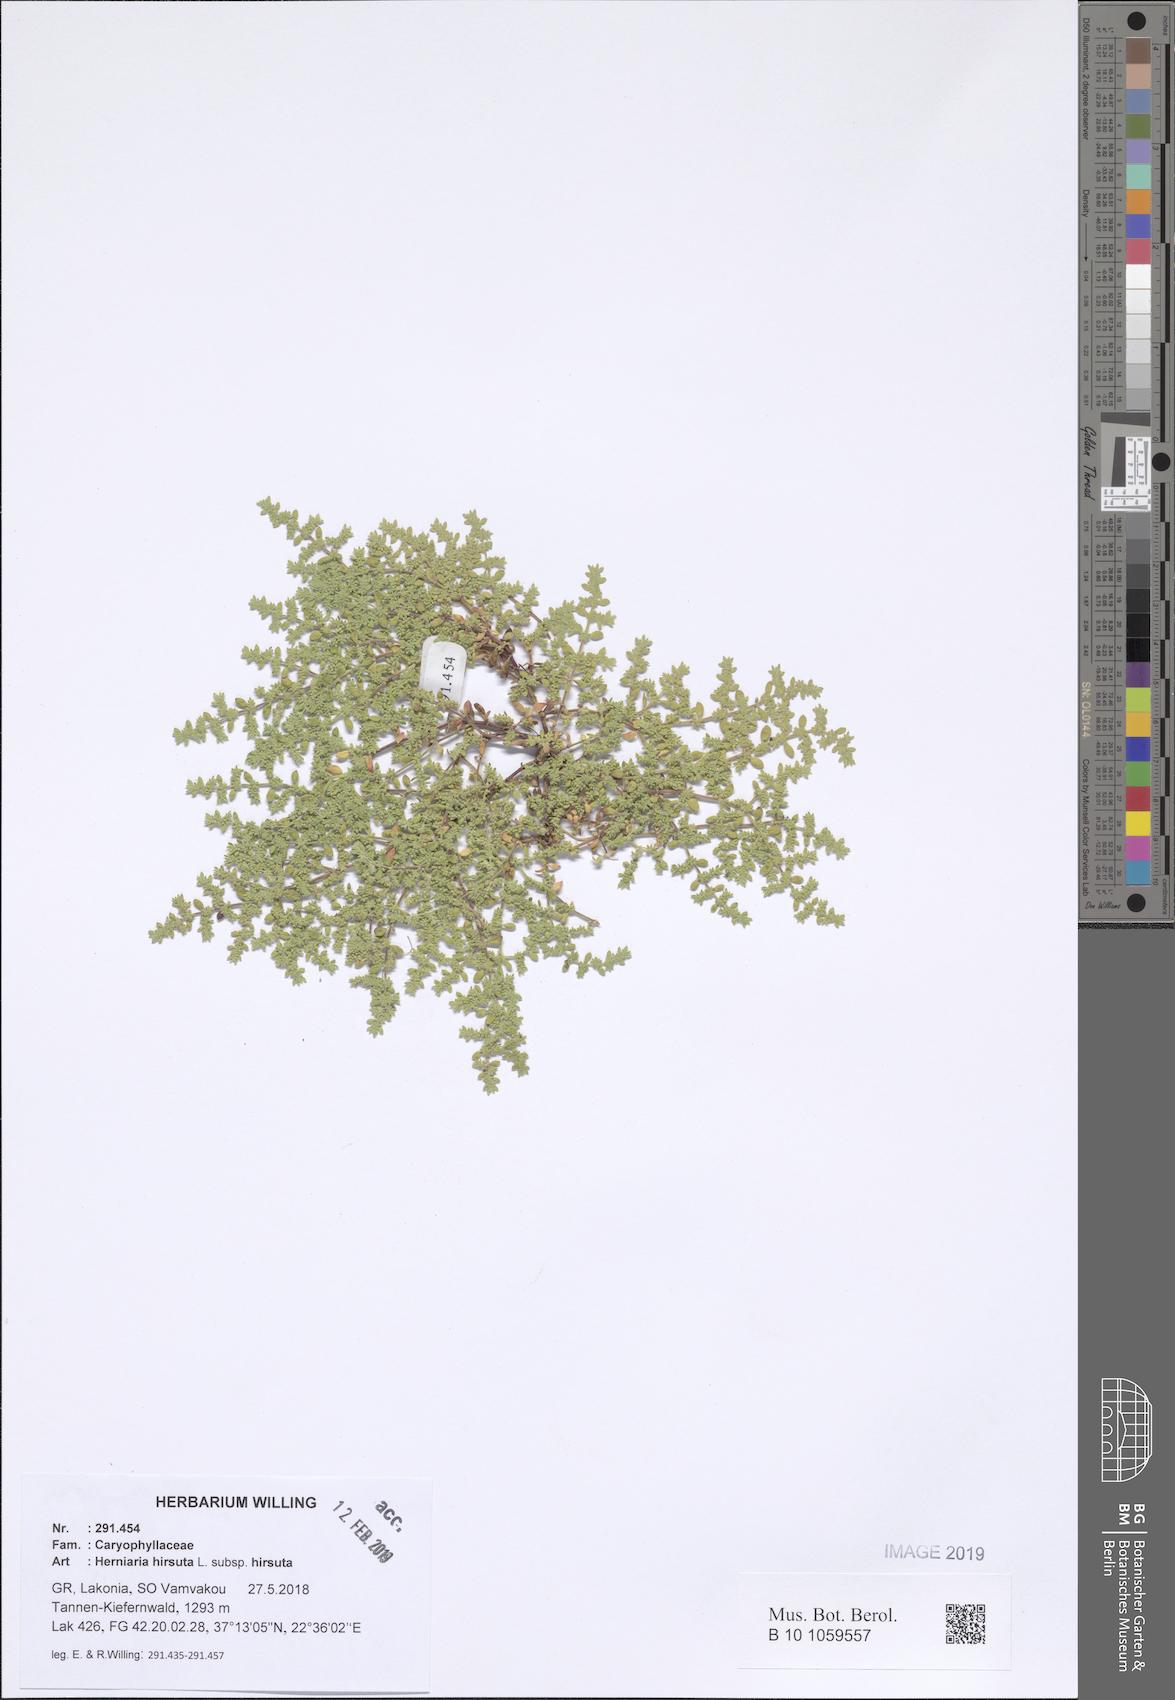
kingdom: Plantae
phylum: Tracheophyta
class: Magnoliopsida
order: Caryophyllales
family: Caryophyllaceae
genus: Herniaria
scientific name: Herniaria hirsuta
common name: Hairy rupturewort
